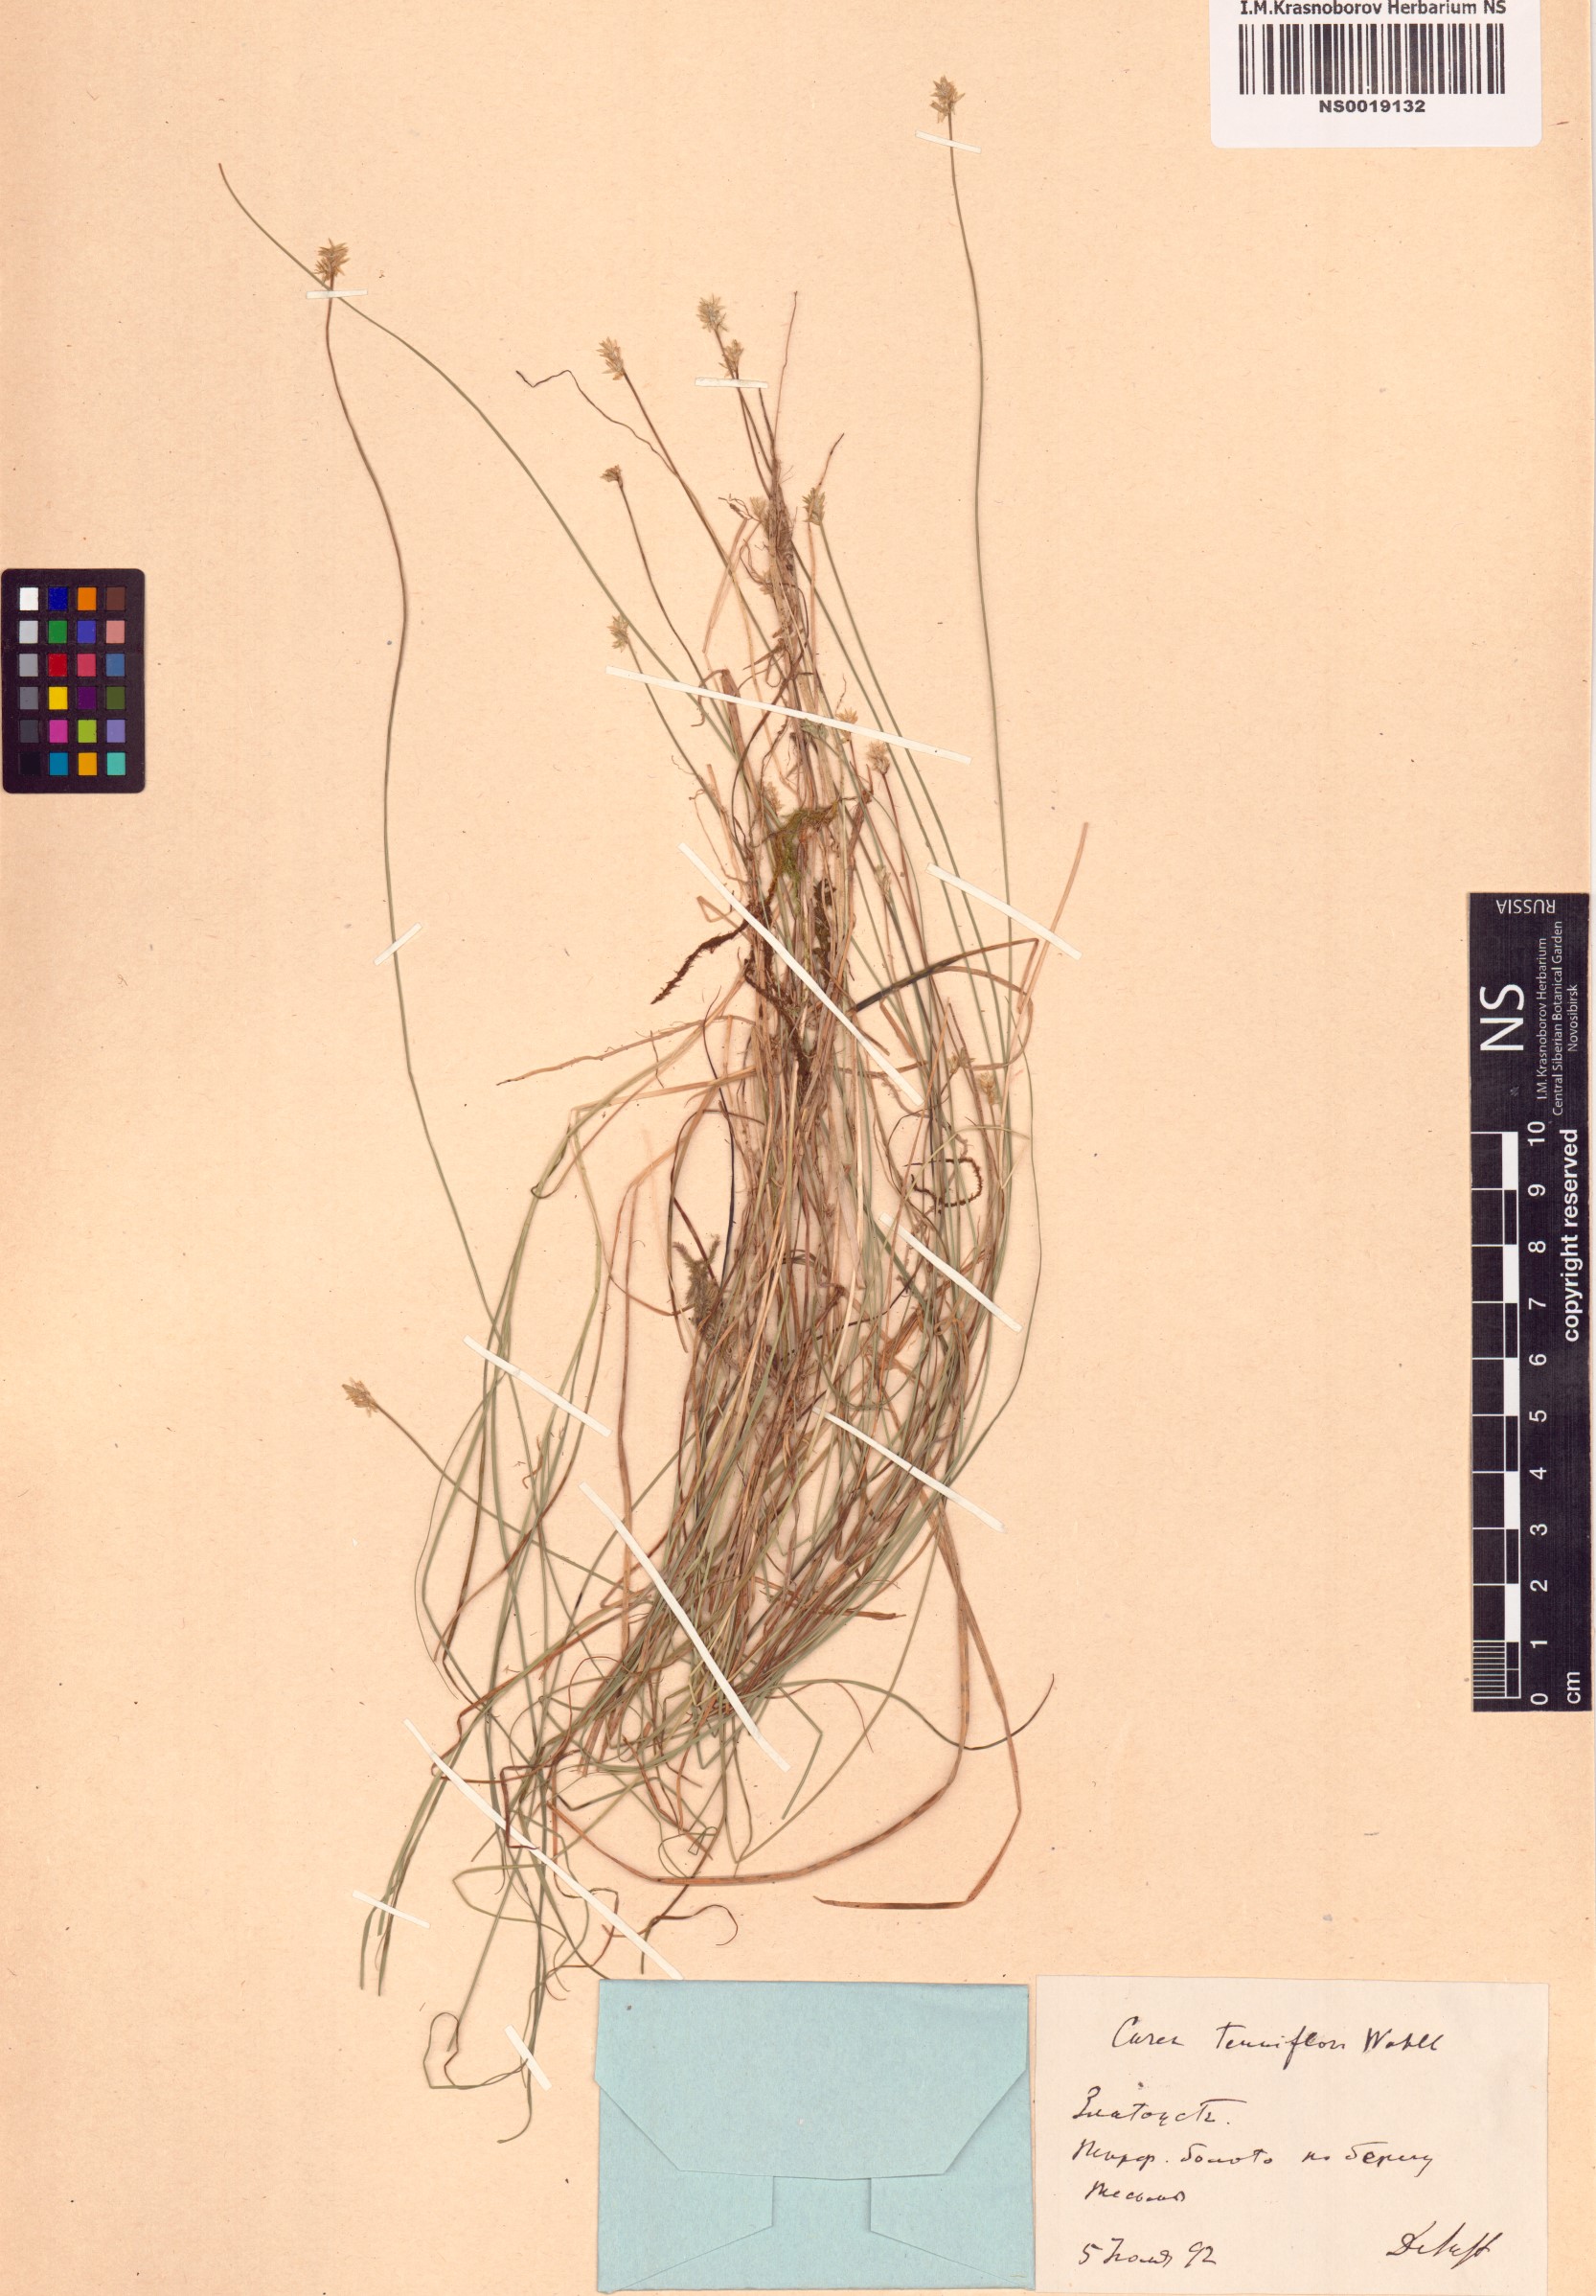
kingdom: Plantae
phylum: Tracheophyta
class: Liliopsida
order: Poales
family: Cyperaceae
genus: Carex
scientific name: Carex halleriana
